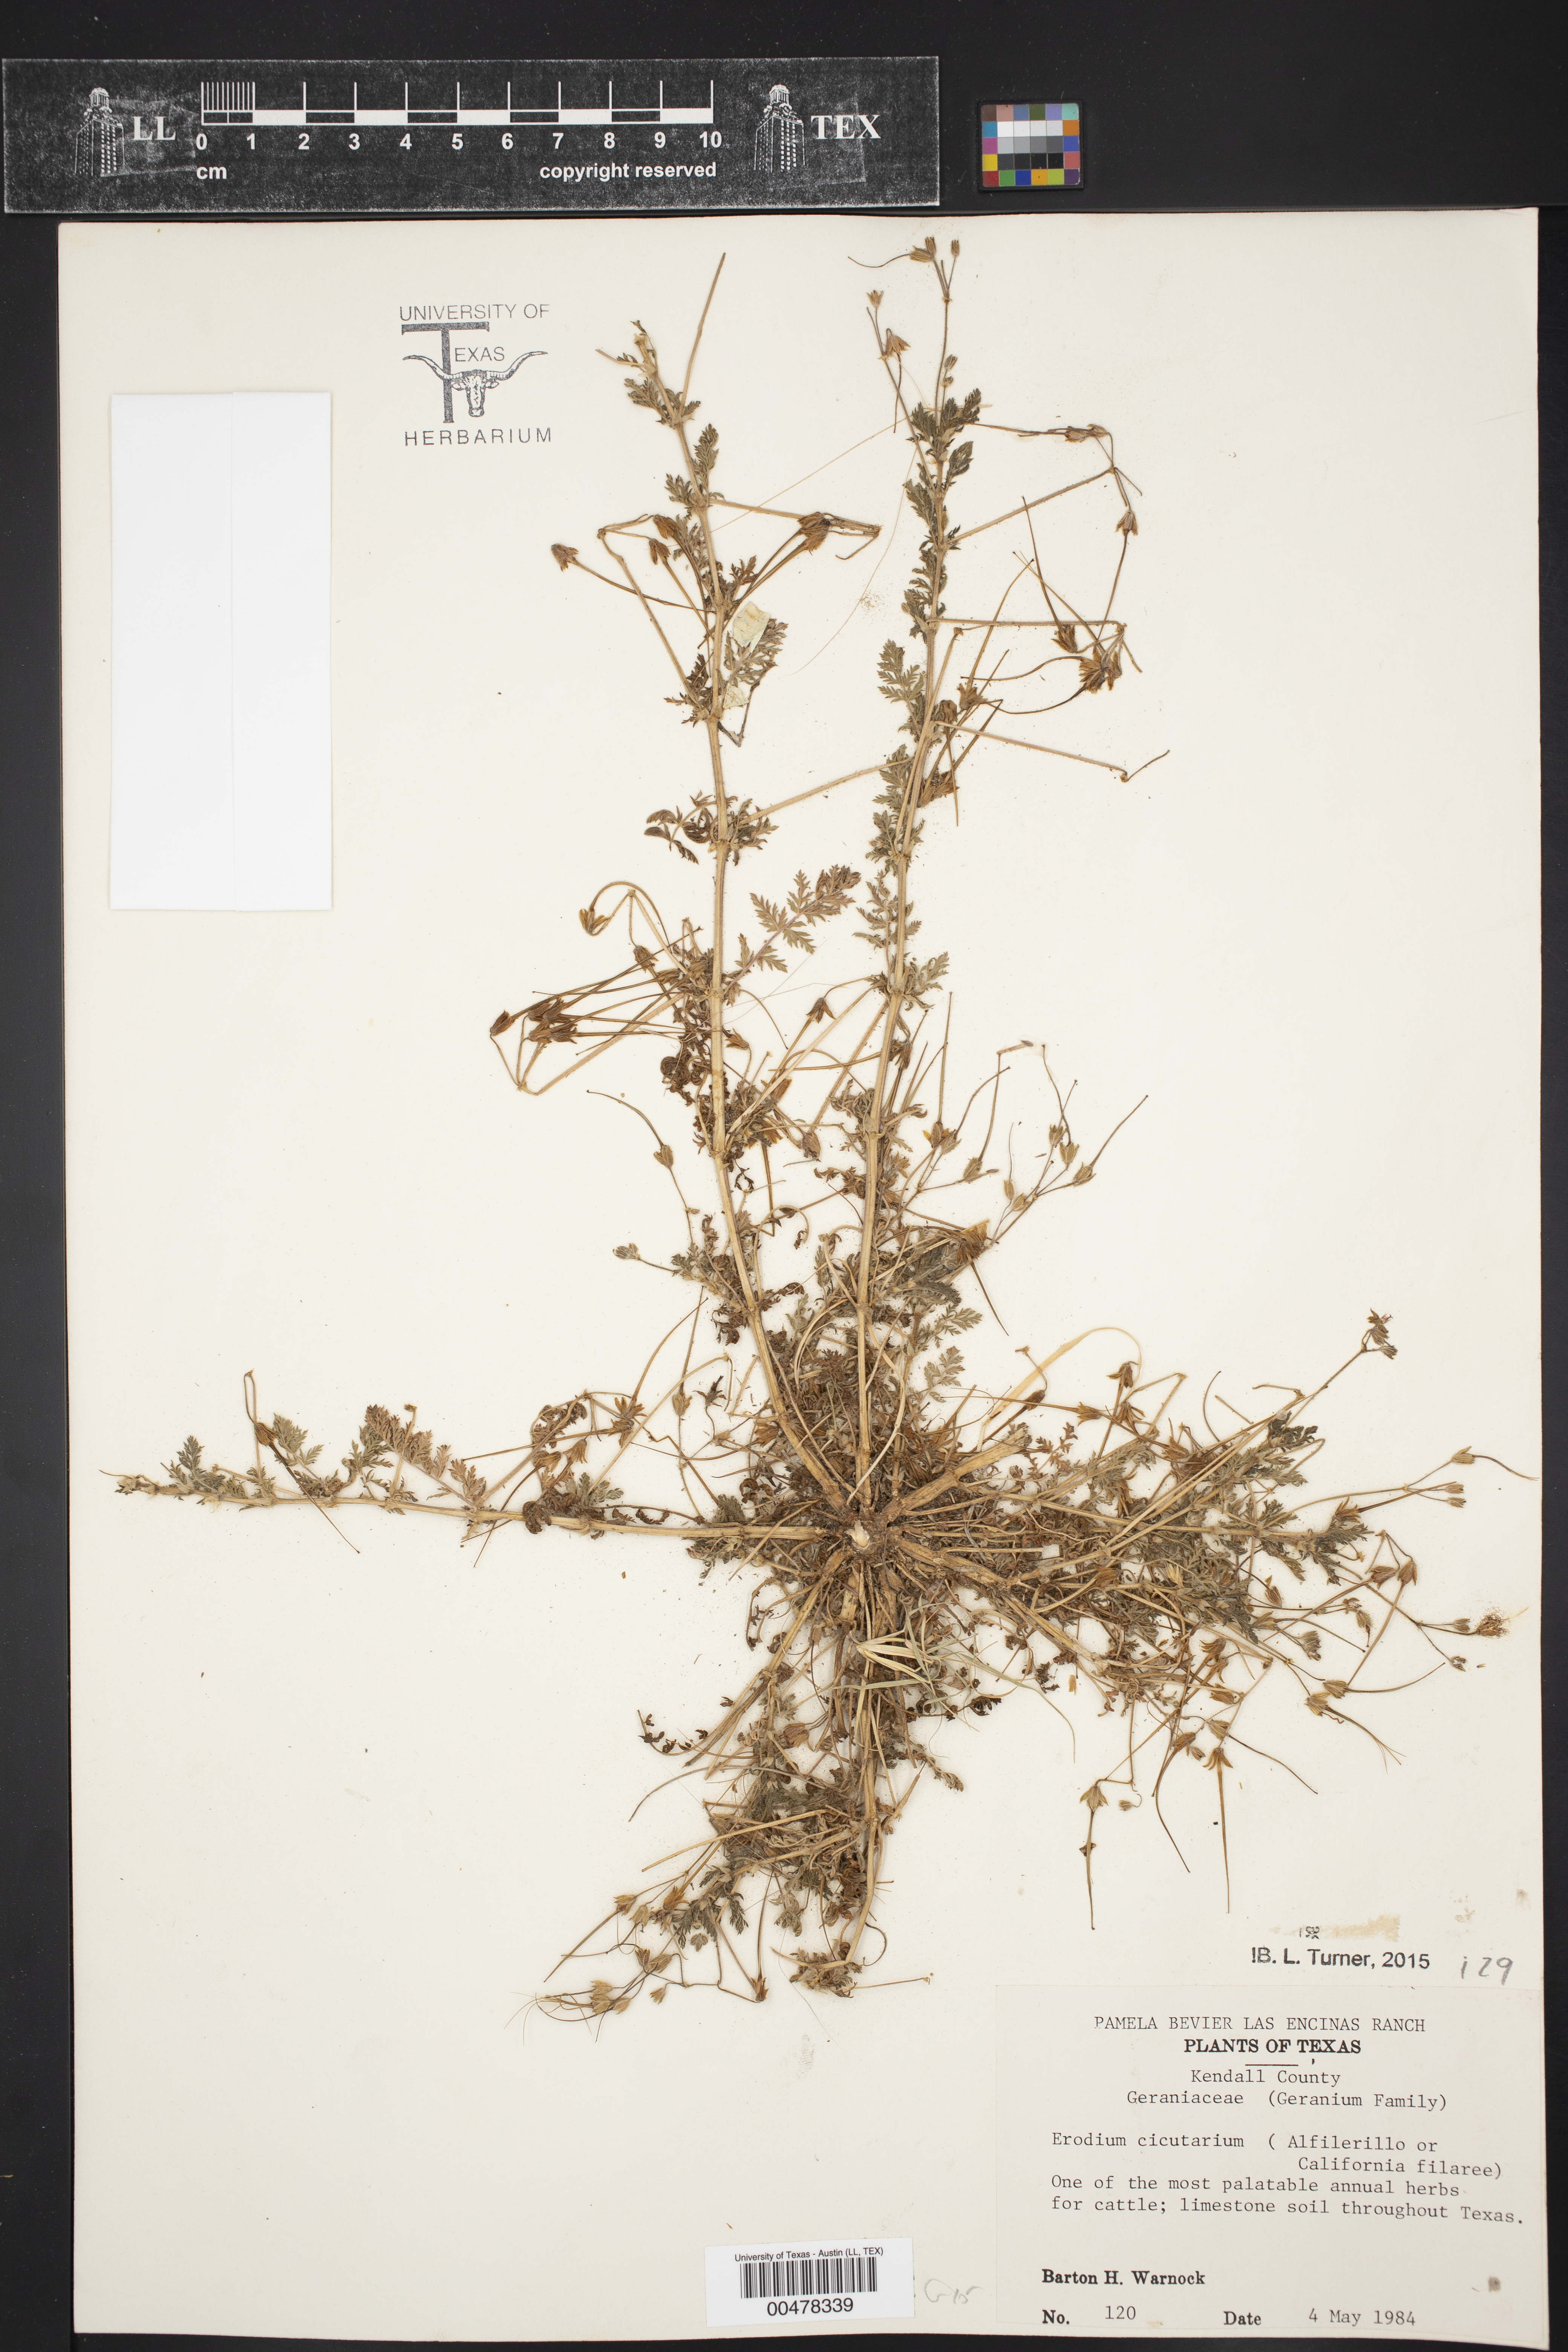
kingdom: Plantae
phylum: Tracheophyta
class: Magnoliopsida
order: Geraniales
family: Geraniaceae
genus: Erodium
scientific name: Erodium cicutarium
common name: Common stork's-bill
